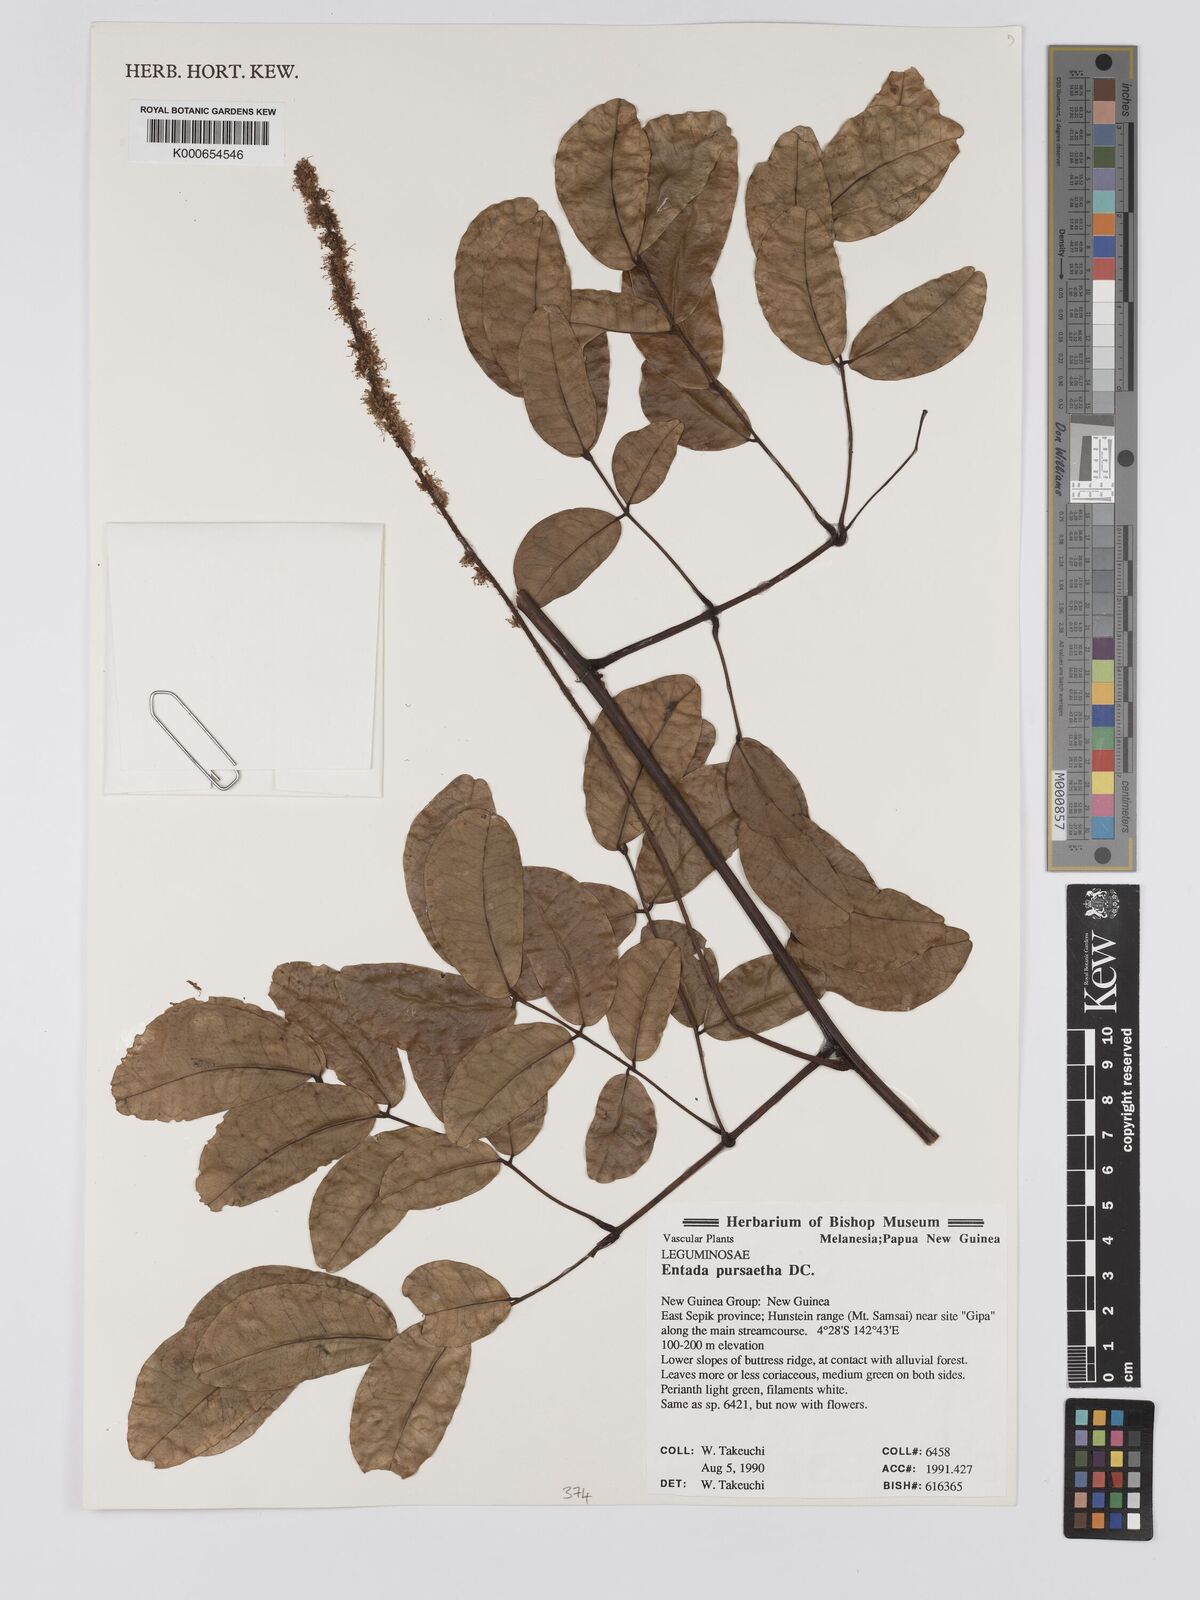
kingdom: Plantae
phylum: Tracheophyta
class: Magnoliopsida
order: Fabales
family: Fabaceae
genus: Entada
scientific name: Entada rheedei
